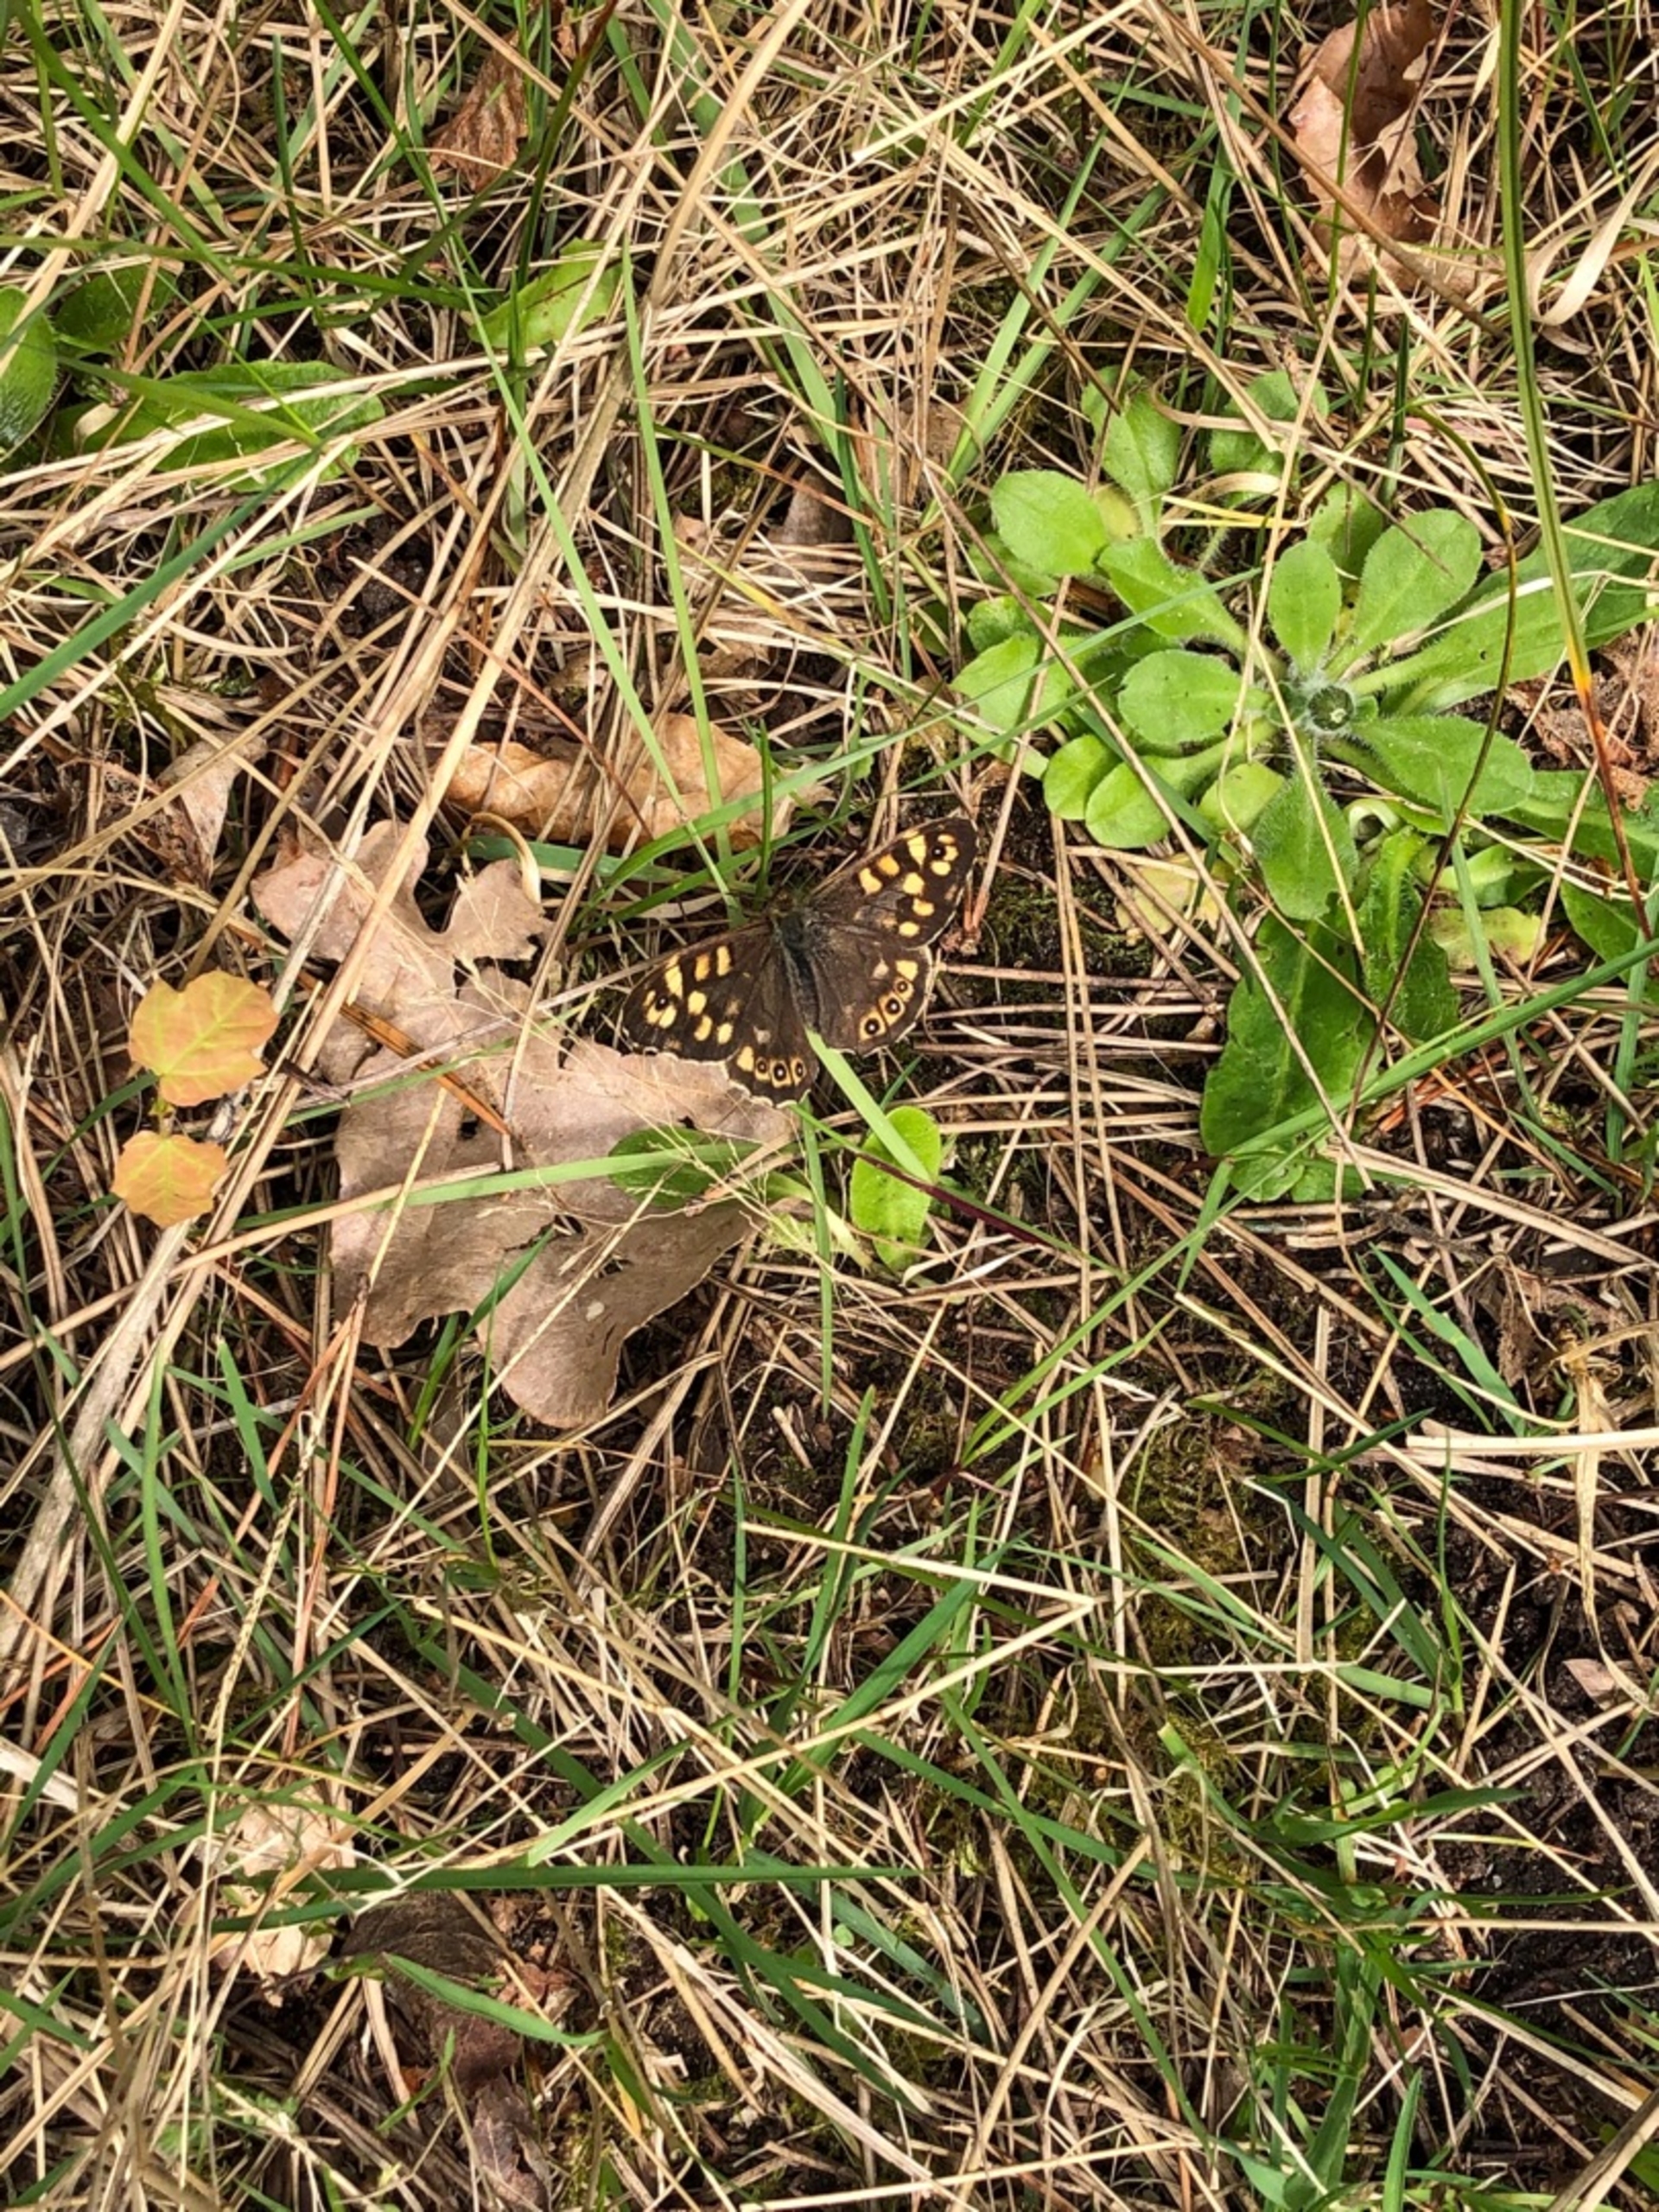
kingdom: Animalia
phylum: Arthropoda
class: Insecta
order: Lepidoptera
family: Nymphalidae
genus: Pararge
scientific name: Pararge aegeria
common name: Skovrandøje
